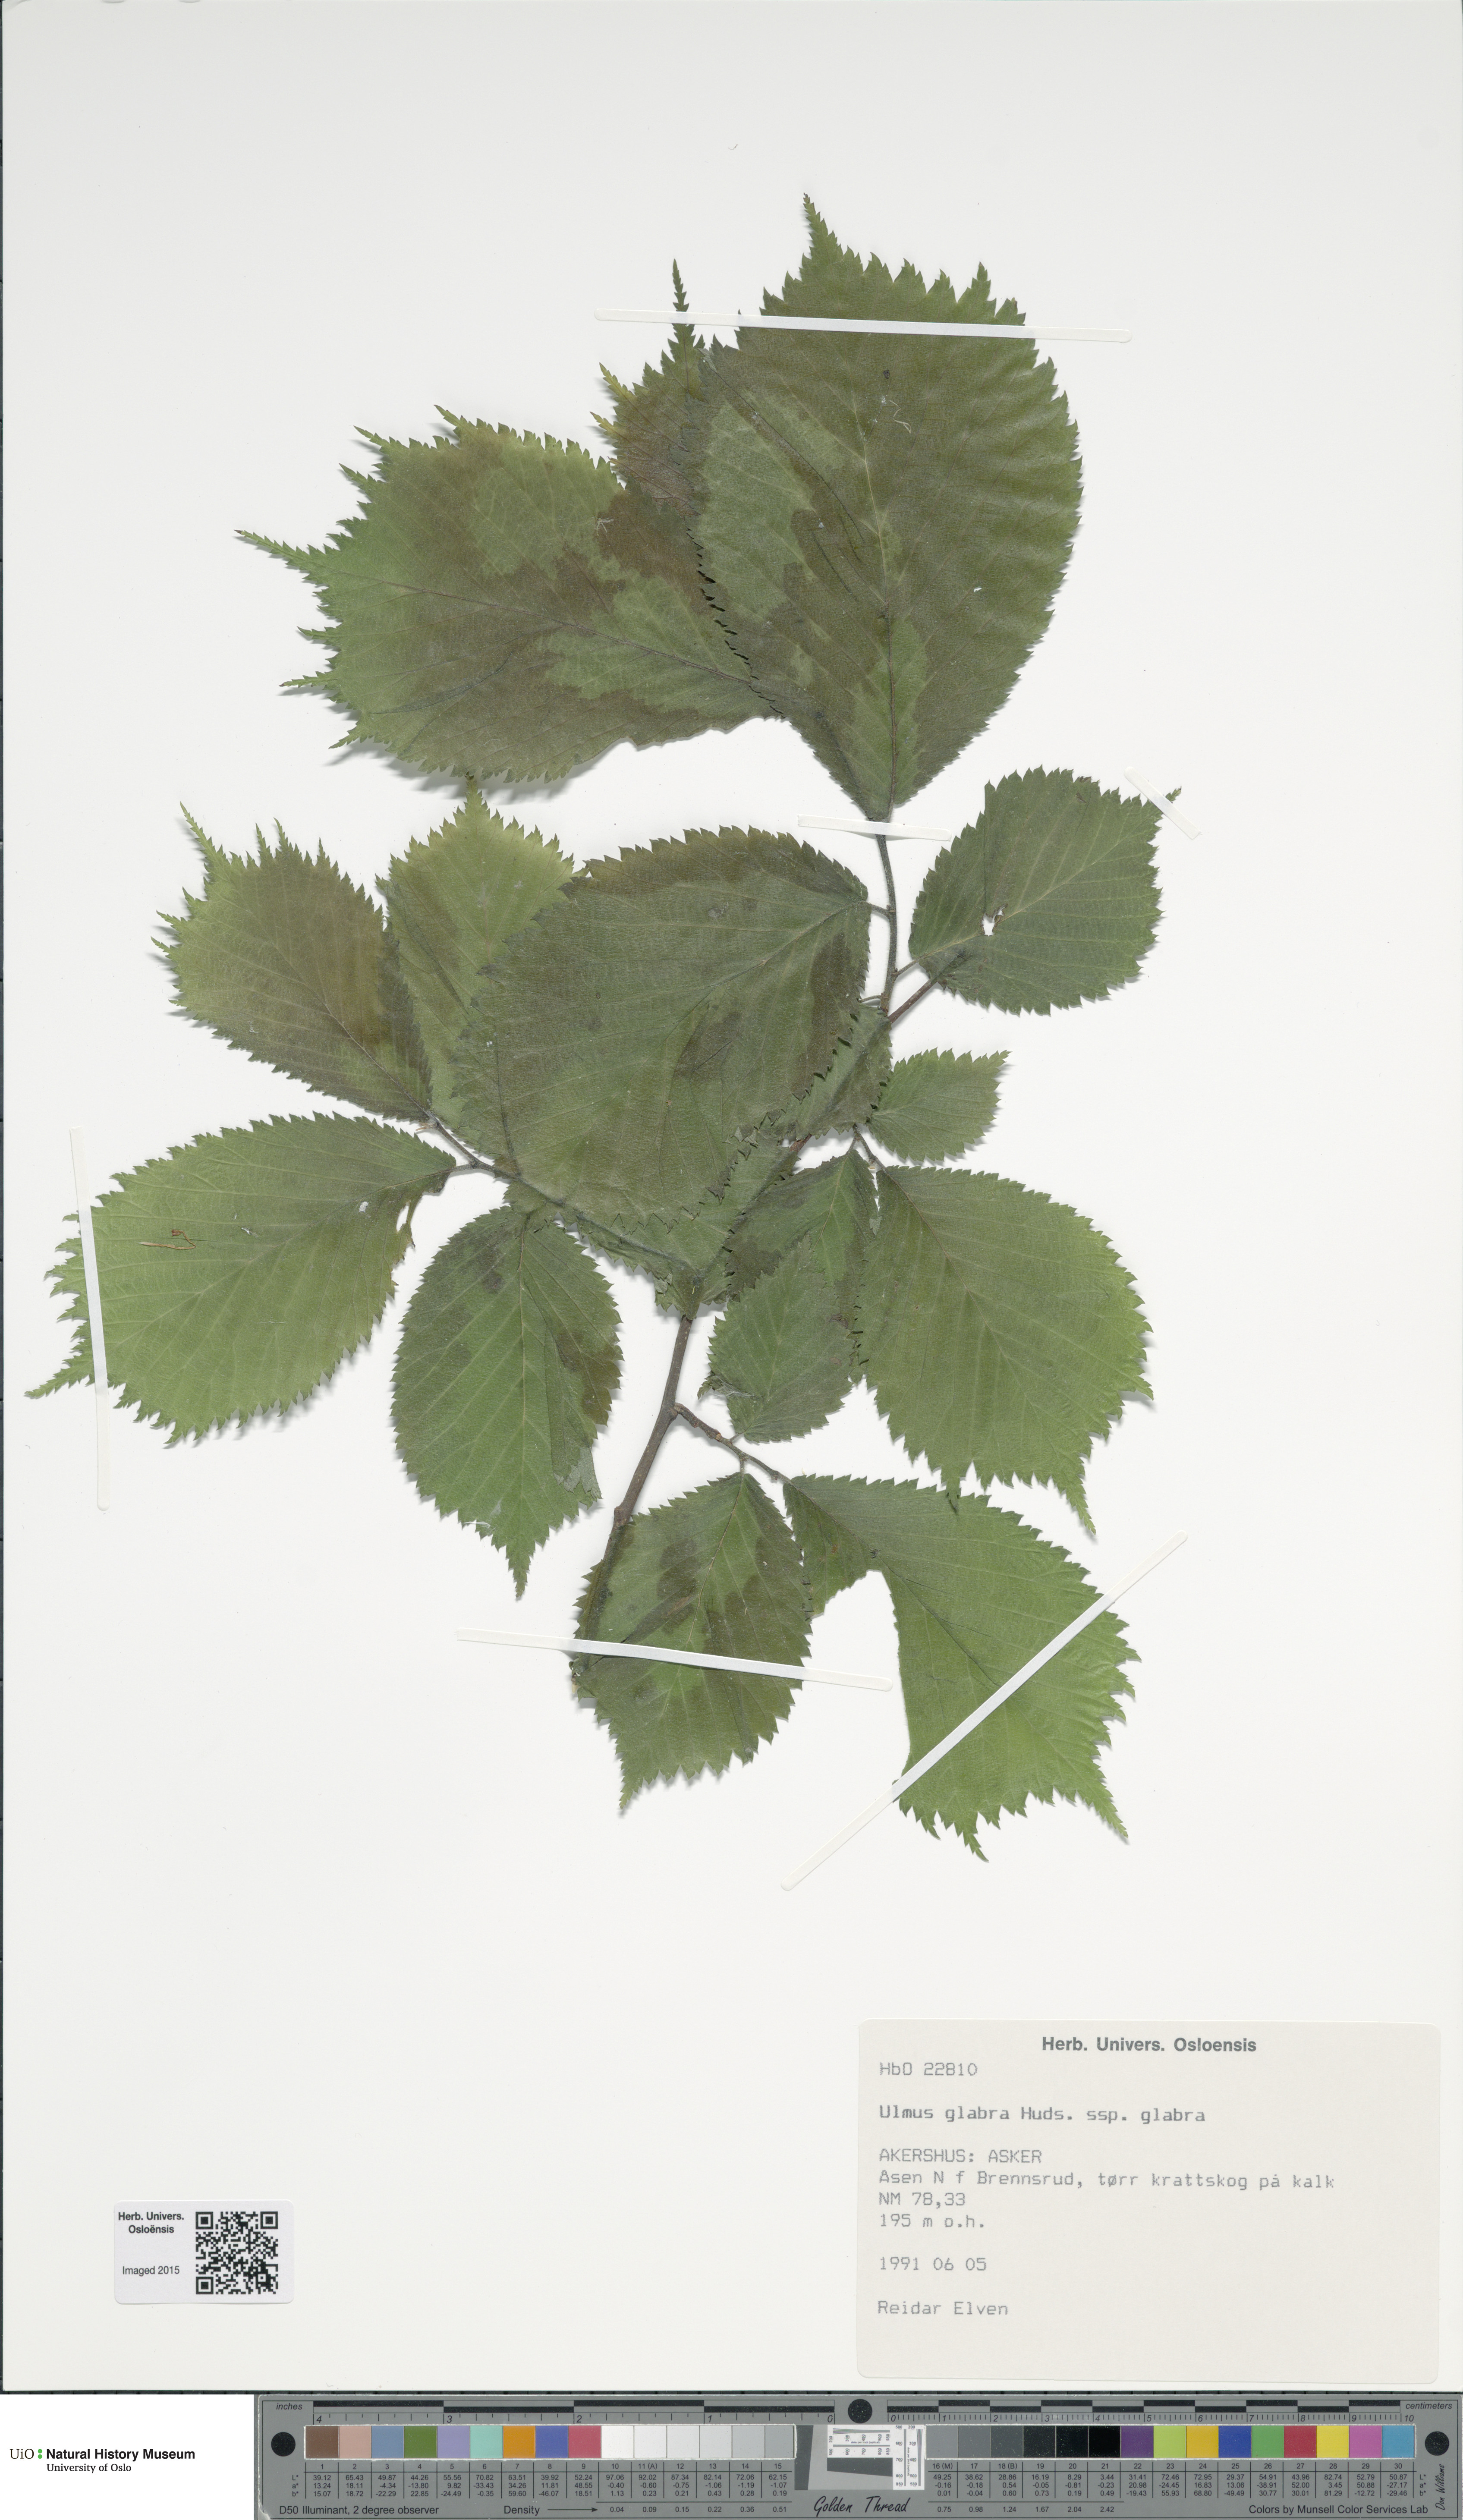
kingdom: Plantae
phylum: Tracheophyta
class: Magnoliopsida
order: Rosales
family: Ulmaceae
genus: Ulmus
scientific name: Ulmus glabra
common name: Wych elm
